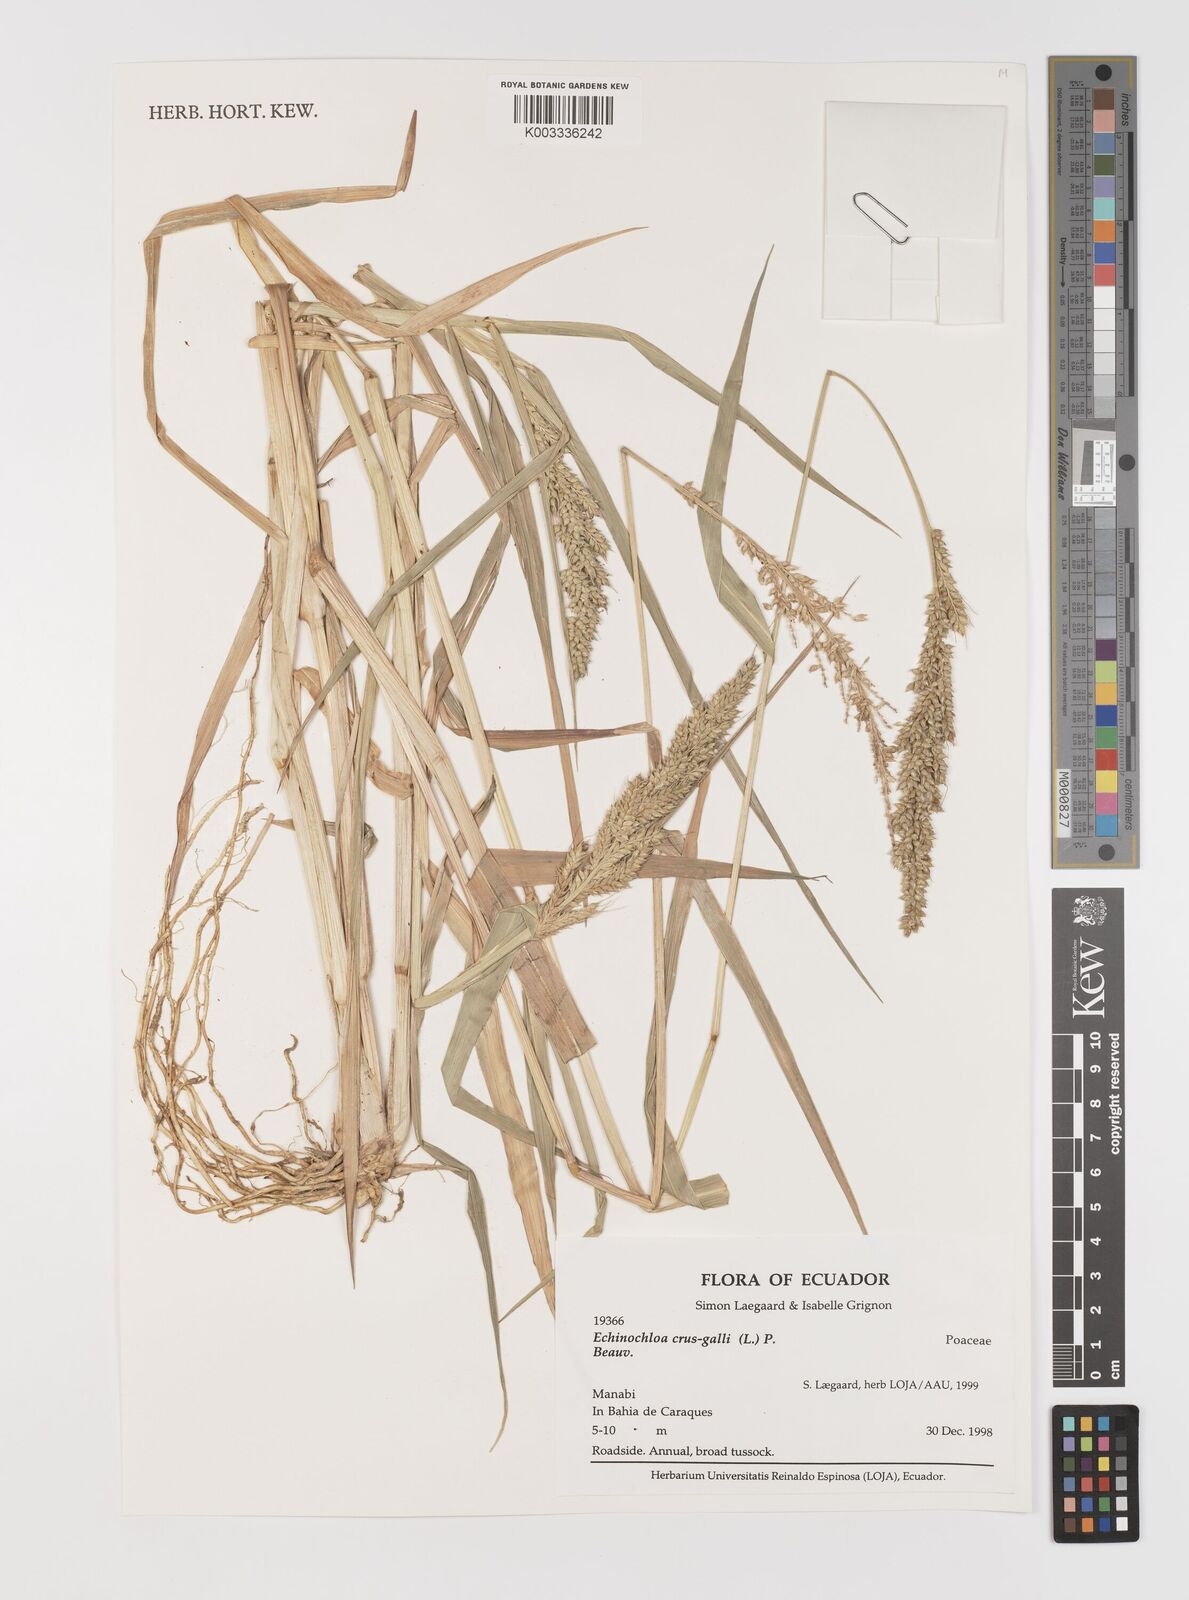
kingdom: Plantae
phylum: Tracheophyta
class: Liliopsida
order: Poales
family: Poaceae
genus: Echinochloa
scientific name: Echinochloa crus-galli
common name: Cockspur
